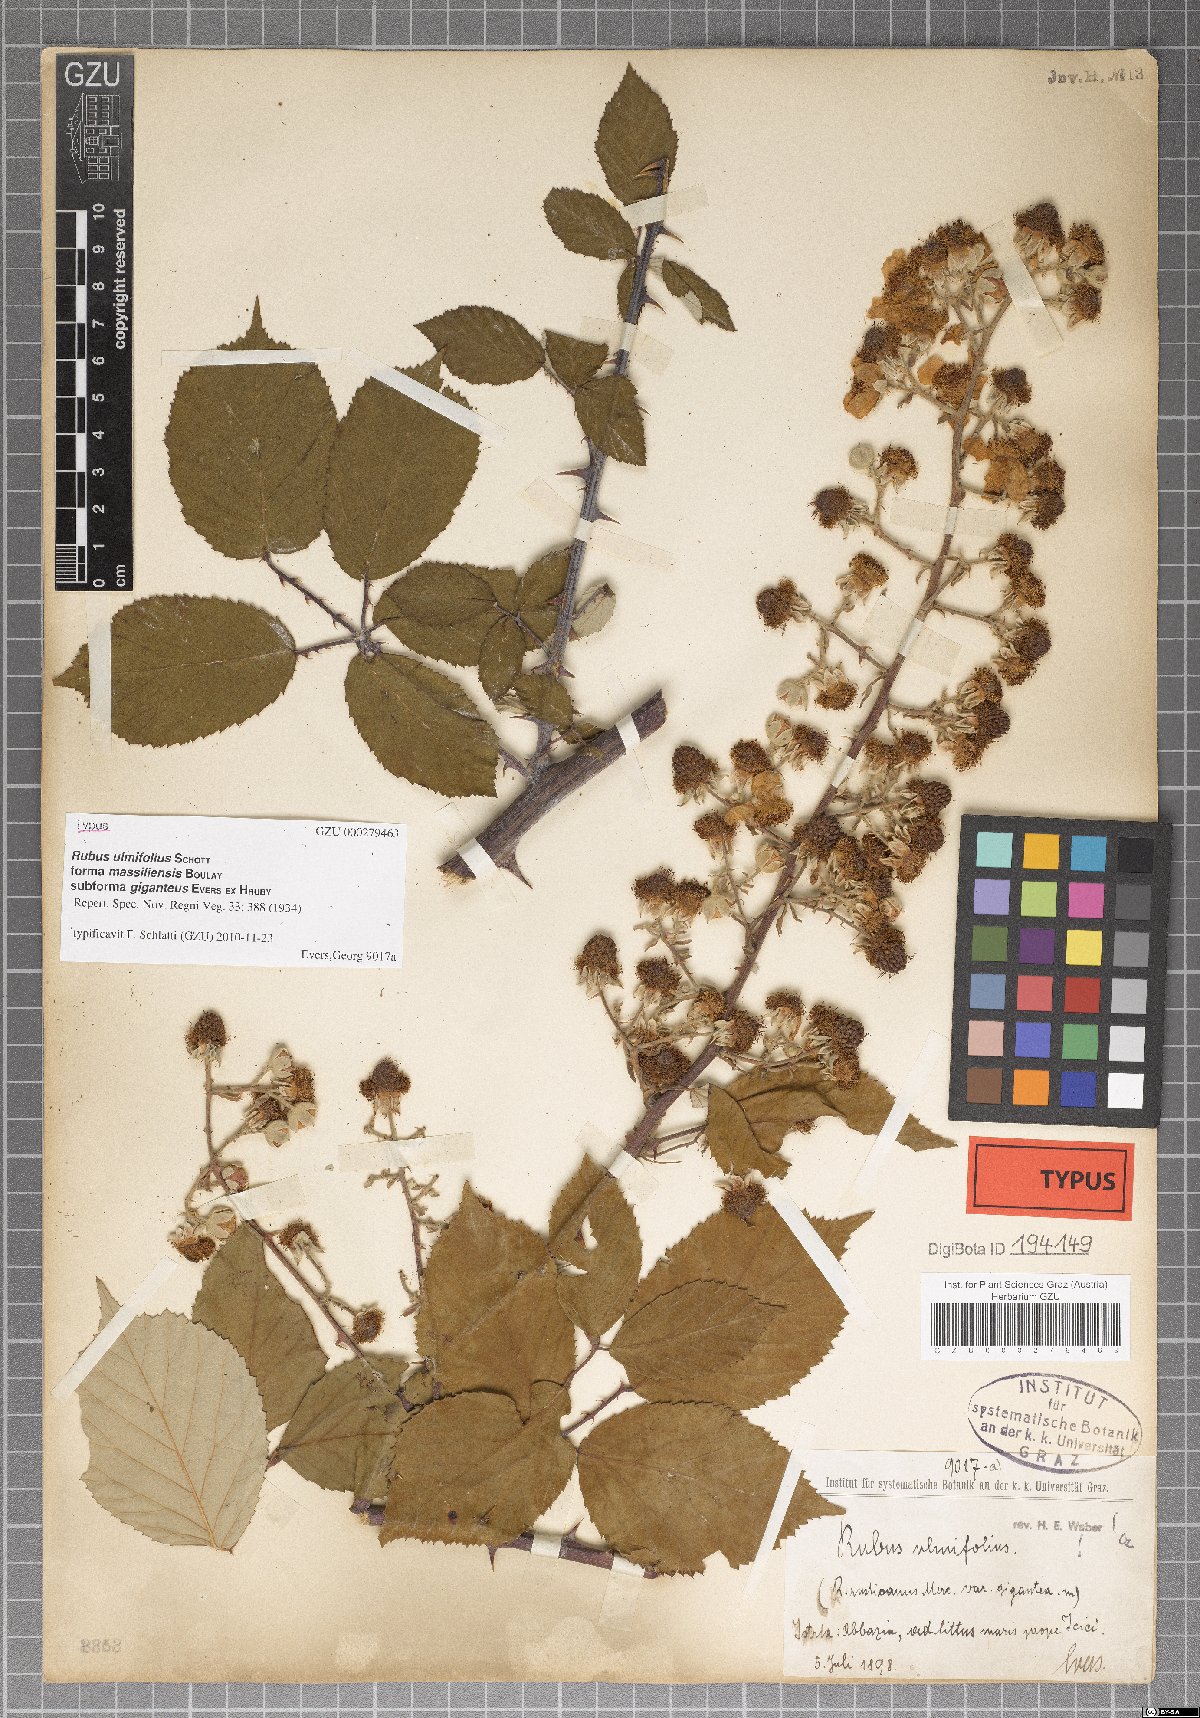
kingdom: Plantae
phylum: Tracheophyta
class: Magnoliopsida
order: Rosales
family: Rosaceae
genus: Rubus
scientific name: Rubus ulmifolius
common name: Elmleaf blackberry
